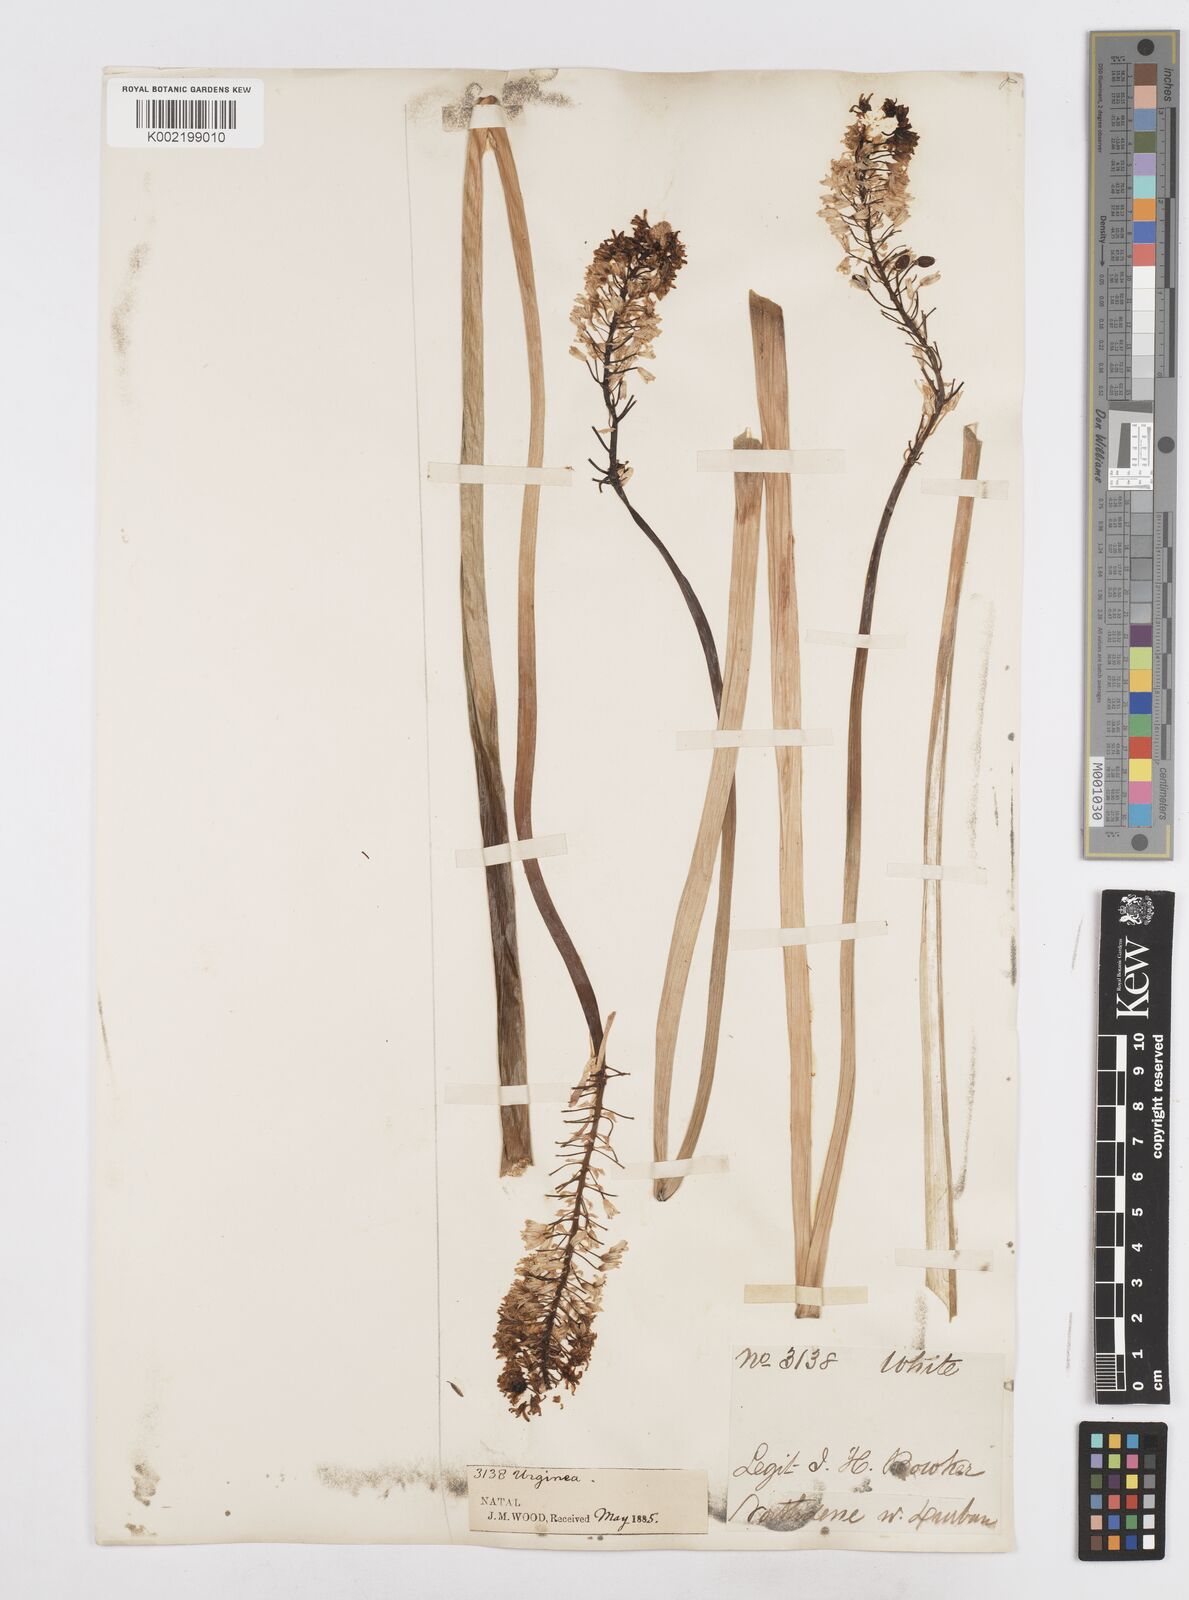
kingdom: Plantae
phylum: Tracheophyta
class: Liliopsida
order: Asparagales
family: Asparagaceae
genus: Ledebouria
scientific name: Ledebouria lilacina
